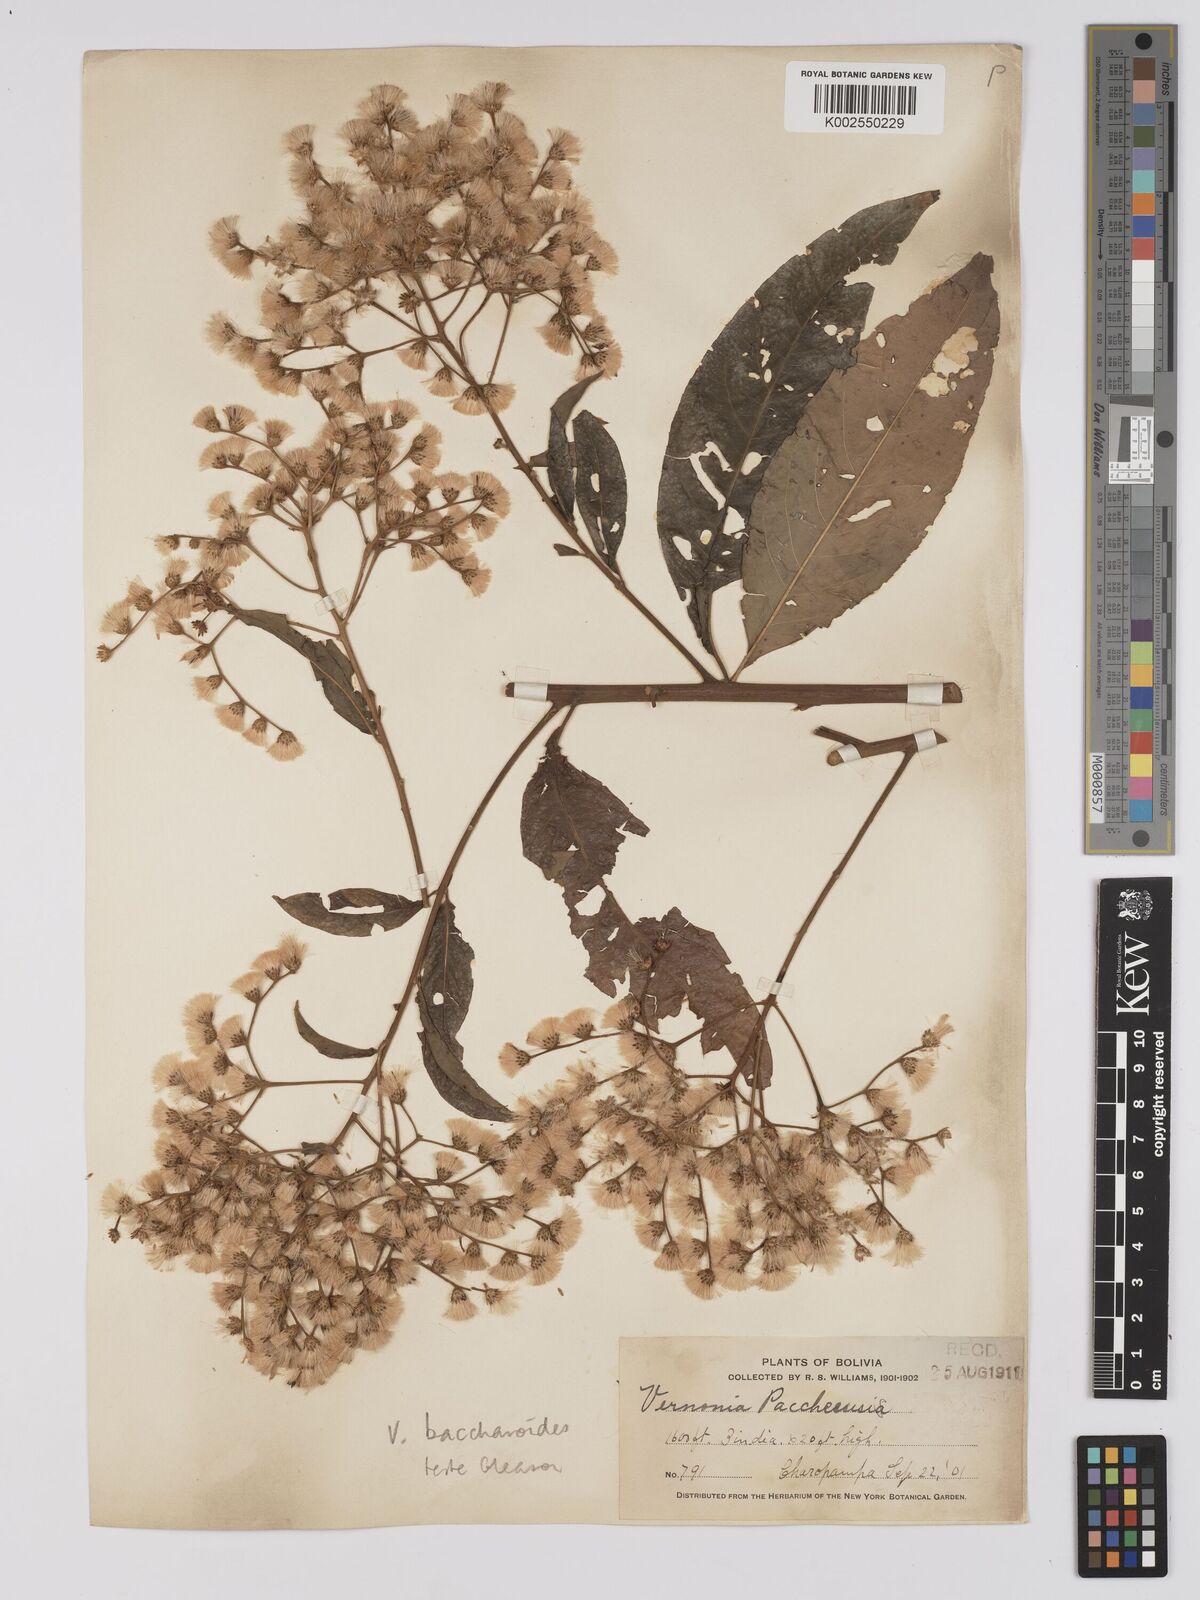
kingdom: Plantae
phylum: Tracheophyta
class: Magnoliopsida
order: Asterales
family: Asteraceae
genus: Vernonanthura
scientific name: Vernonanthura patens
